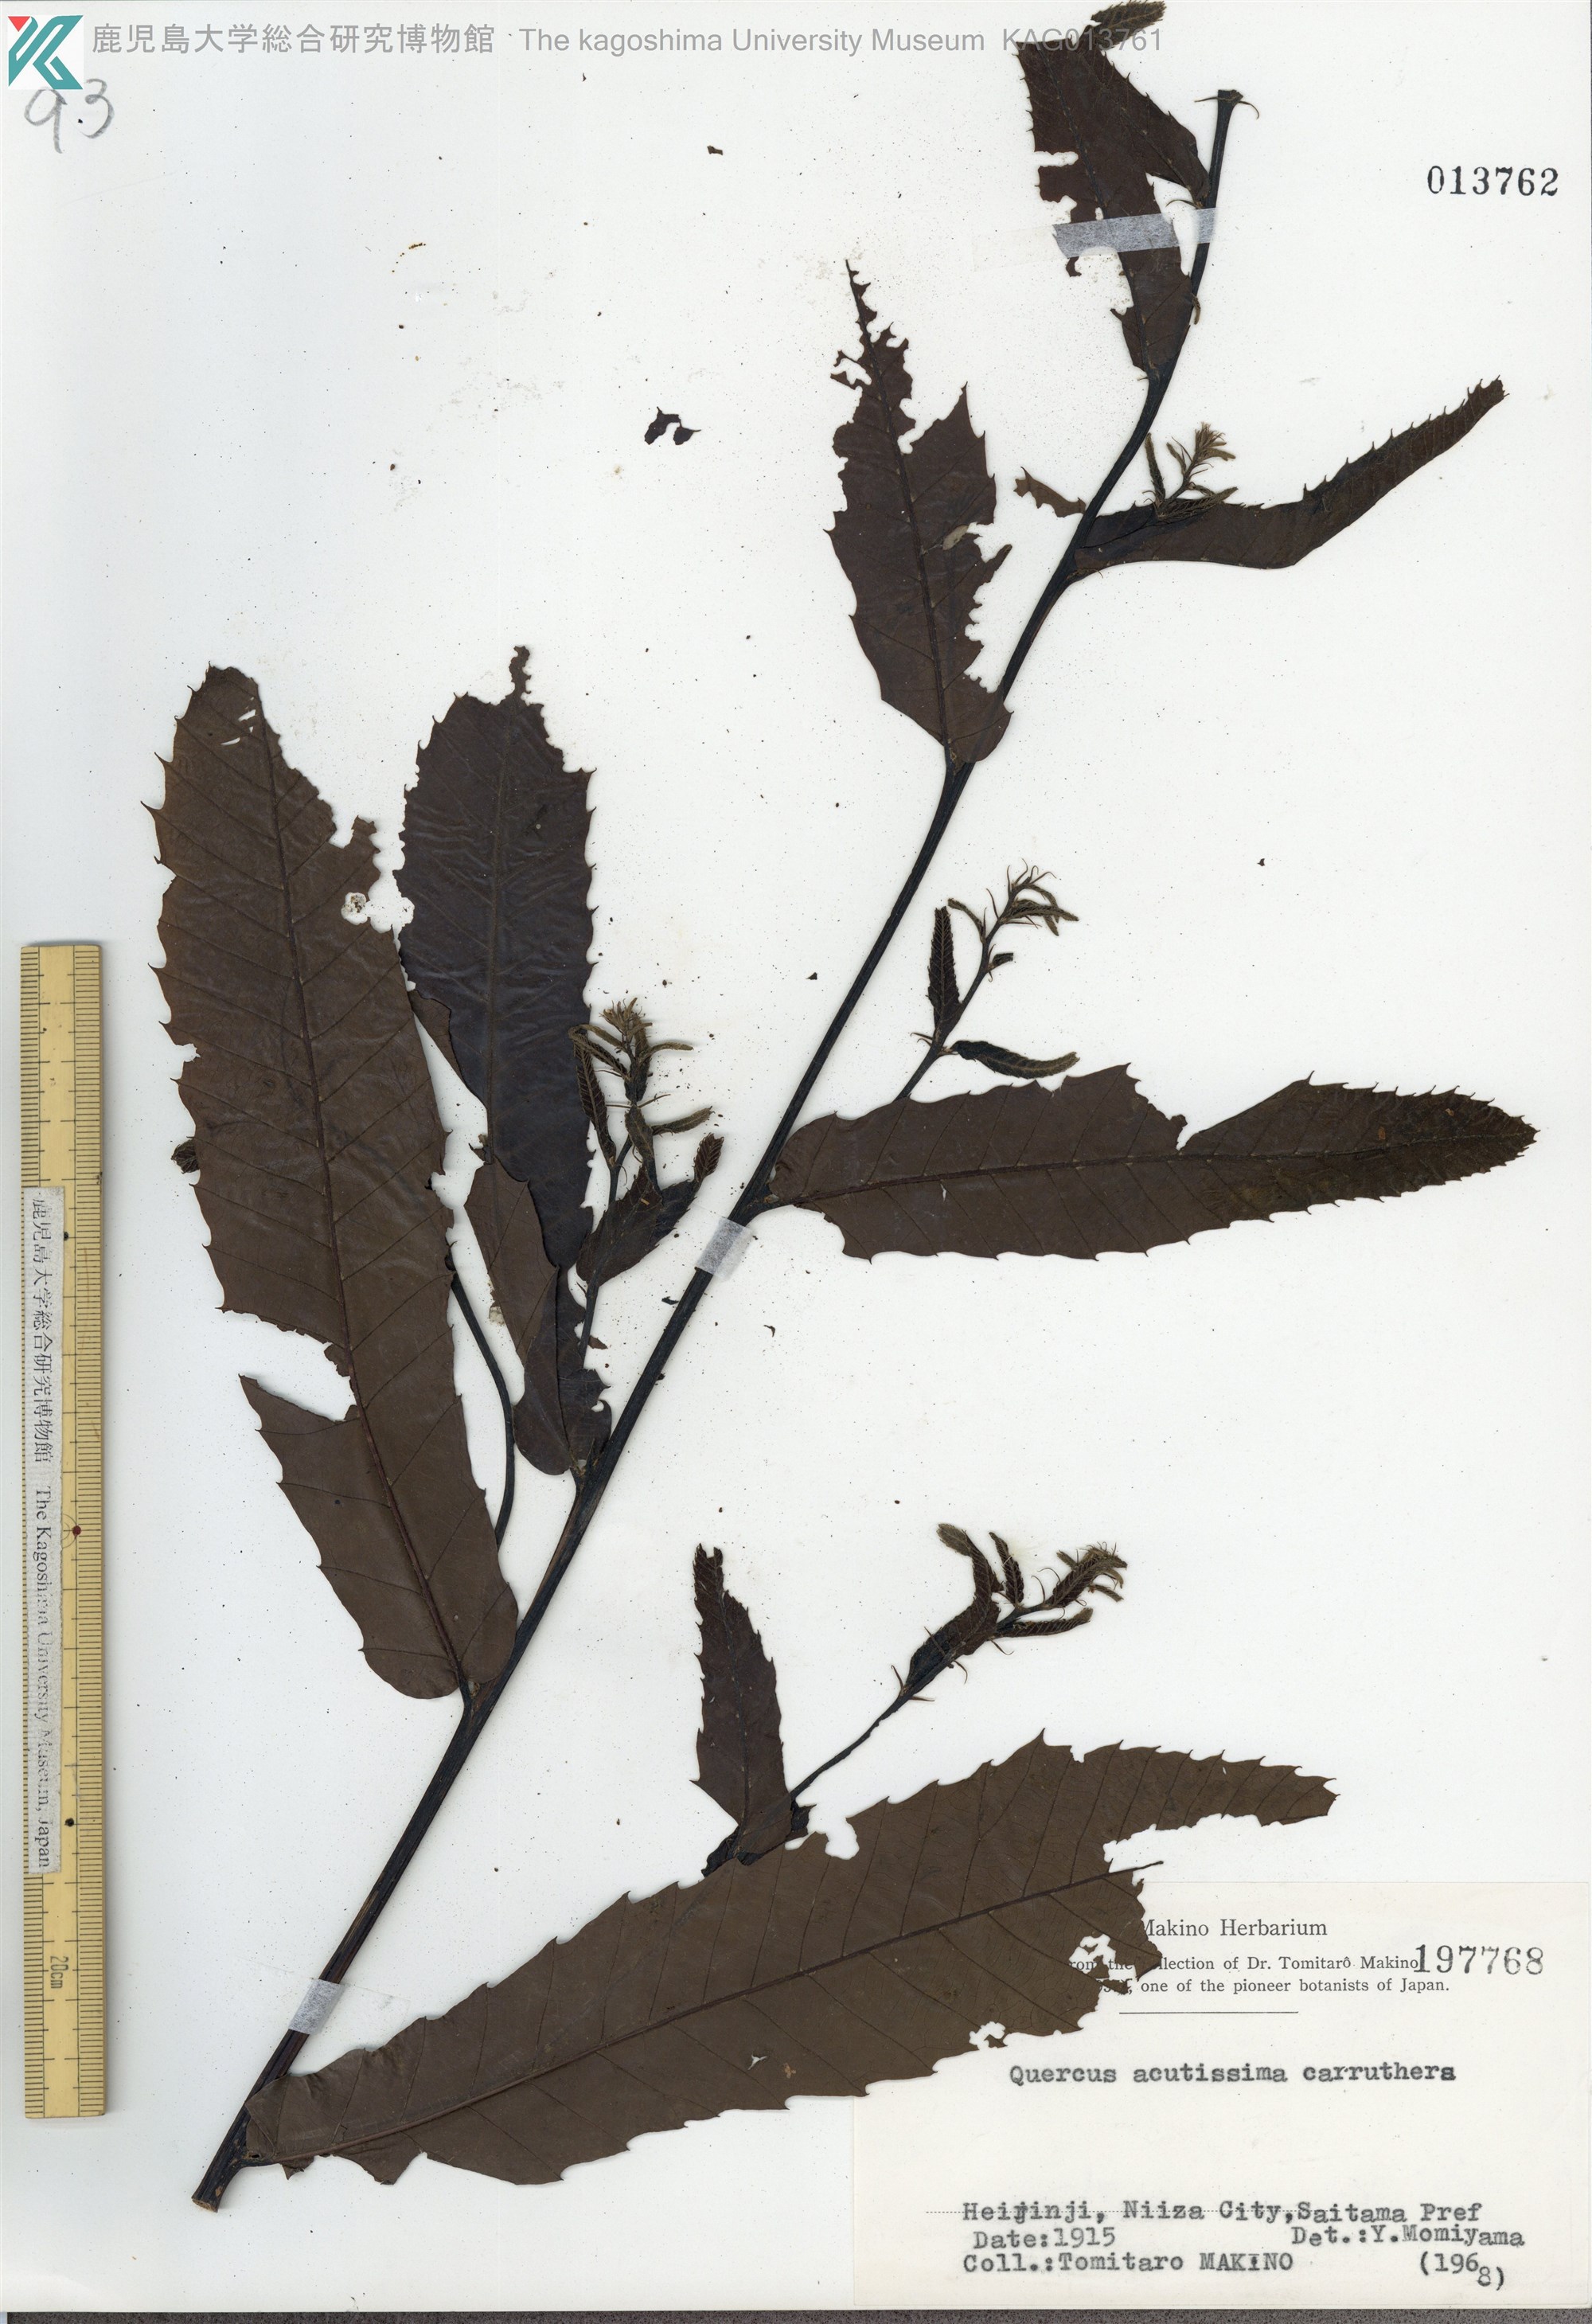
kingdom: Plantae
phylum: Tracheophyta
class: Magnoliopsida
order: Fagales
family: Fagaceae
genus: Quercus
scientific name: Quercus acutissima
